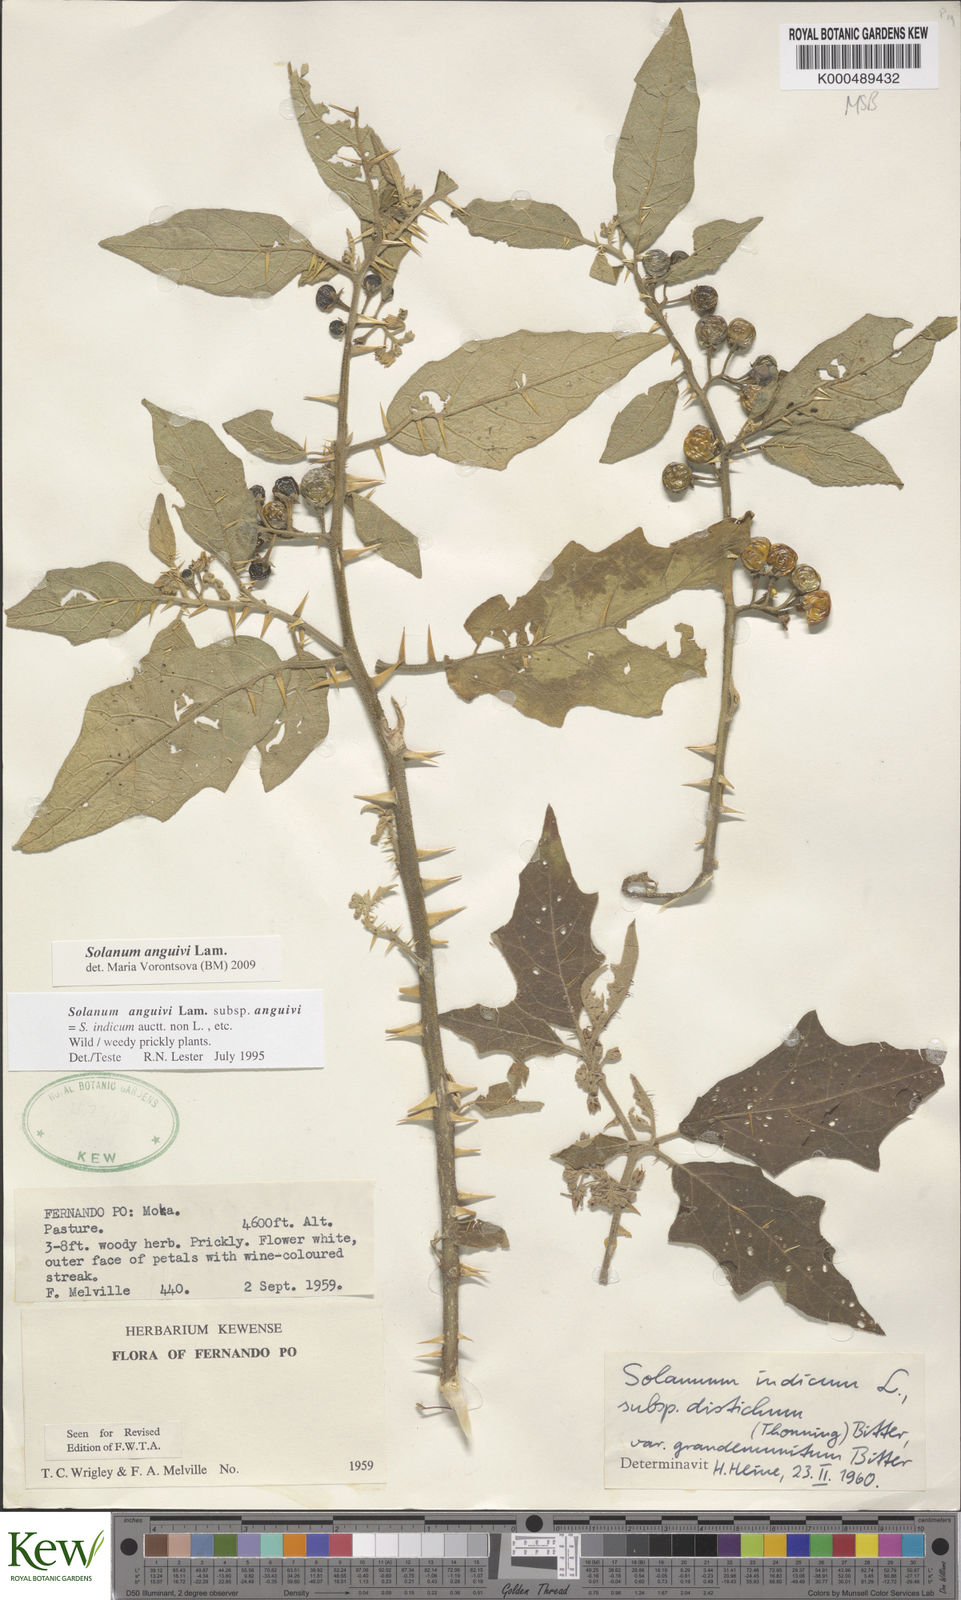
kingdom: Plantae
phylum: Tracheophyta
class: Magnoliopsida
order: Solanales
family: Solanaceae
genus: Solanum
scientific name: Solanum anguivi
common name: Forest bitterberry
